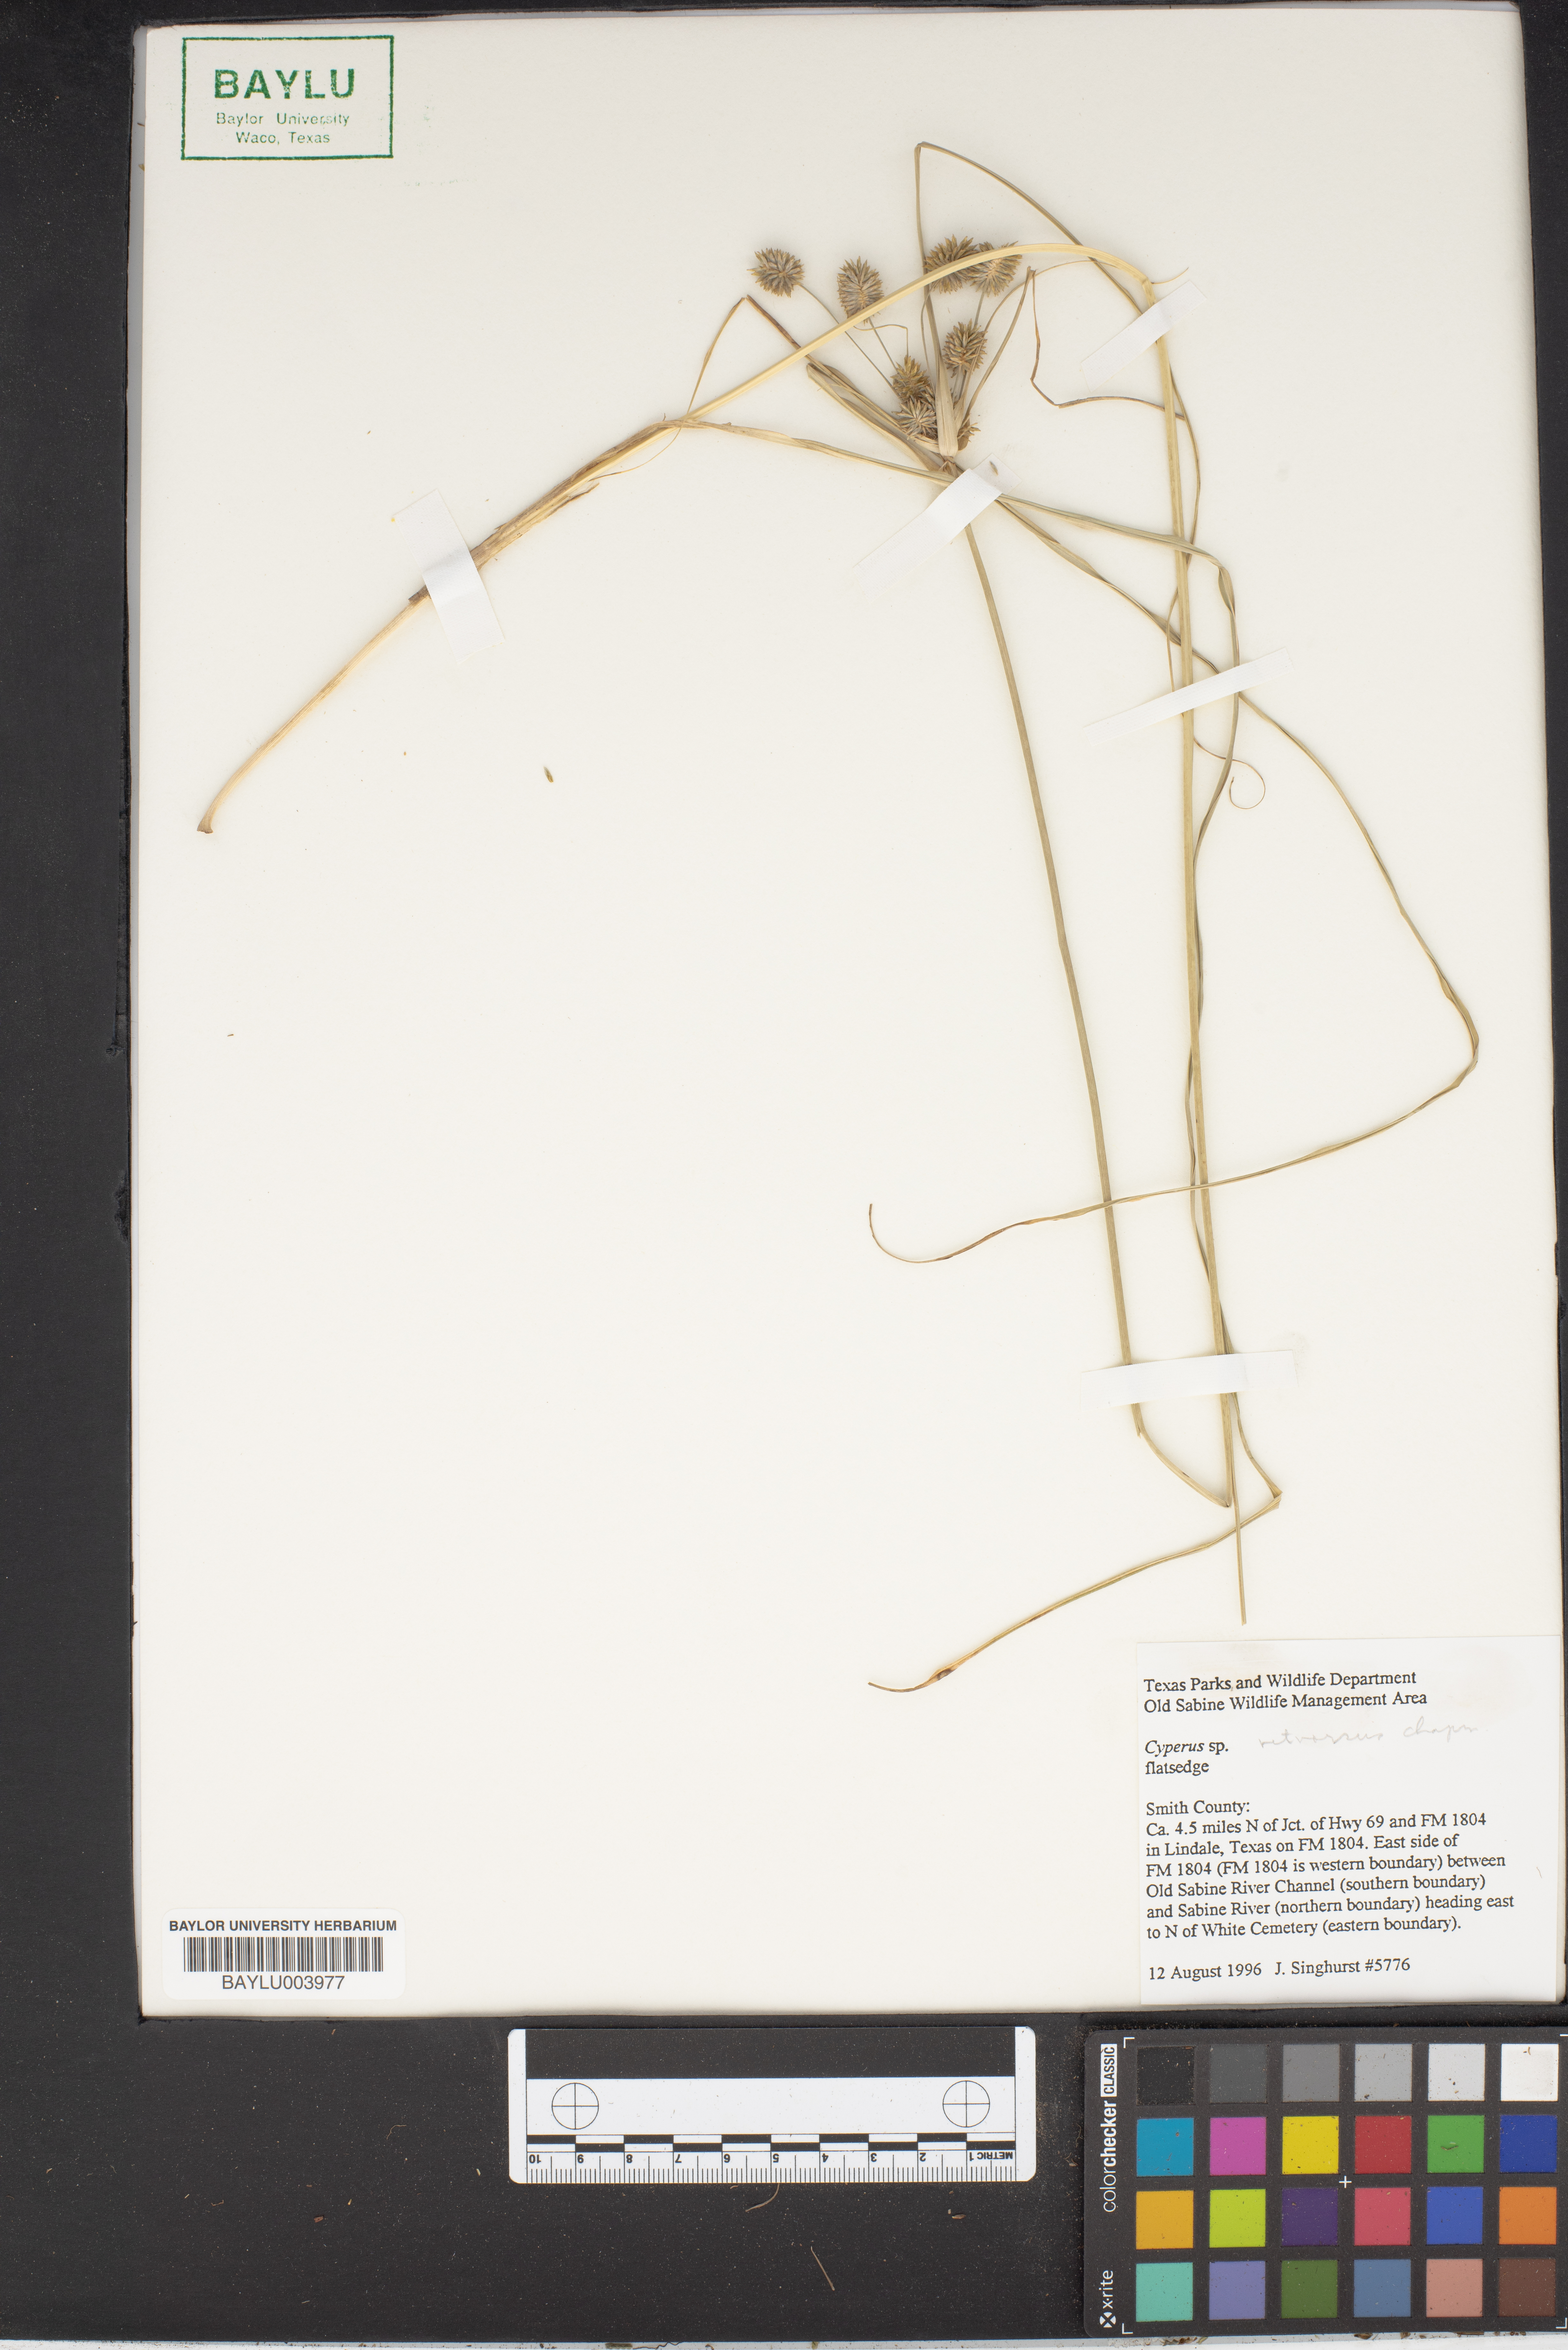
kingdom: Plantae
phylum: Tracheophyta
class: Liliopsida
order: Poales
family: Cyperaceae
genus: Cyperus
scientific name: Cyperus retrorsus
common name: Pinebarren flat sedge
